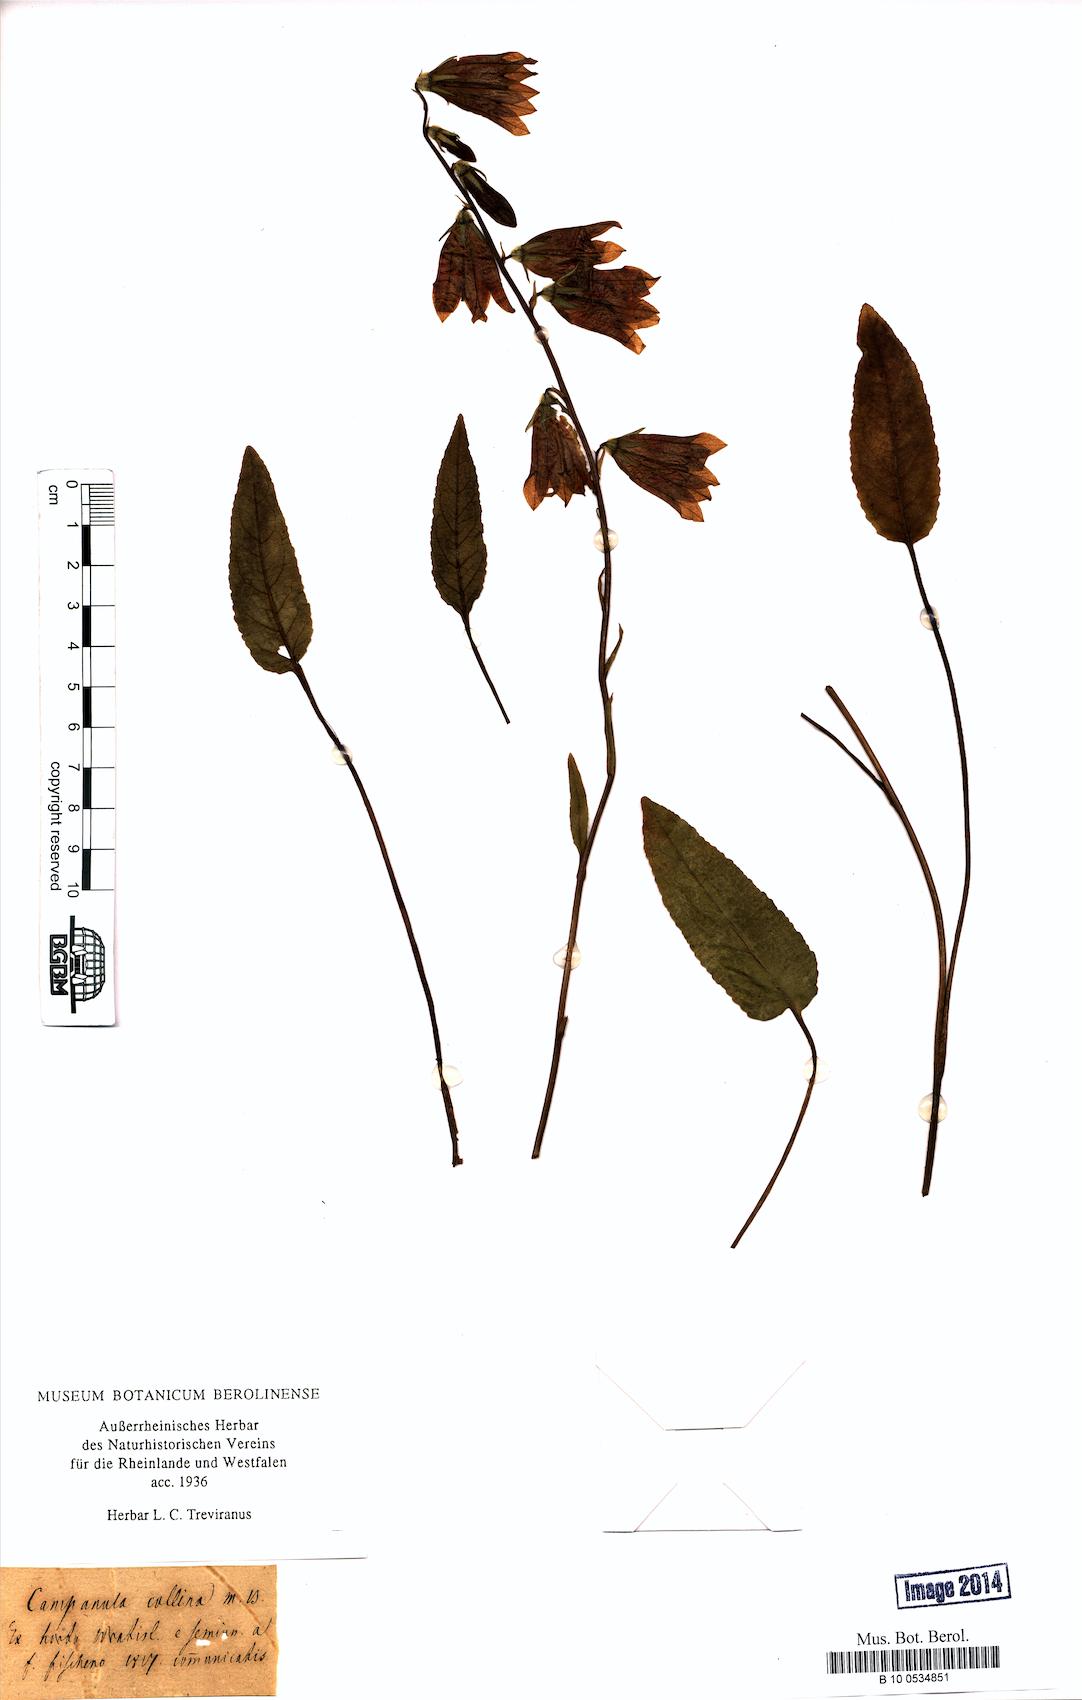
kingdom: Plantae
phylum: Tracheophyta
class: Magnoliopsida
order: Asterales
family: Campanulaceae
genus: Campanula
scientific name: Campanula collina
